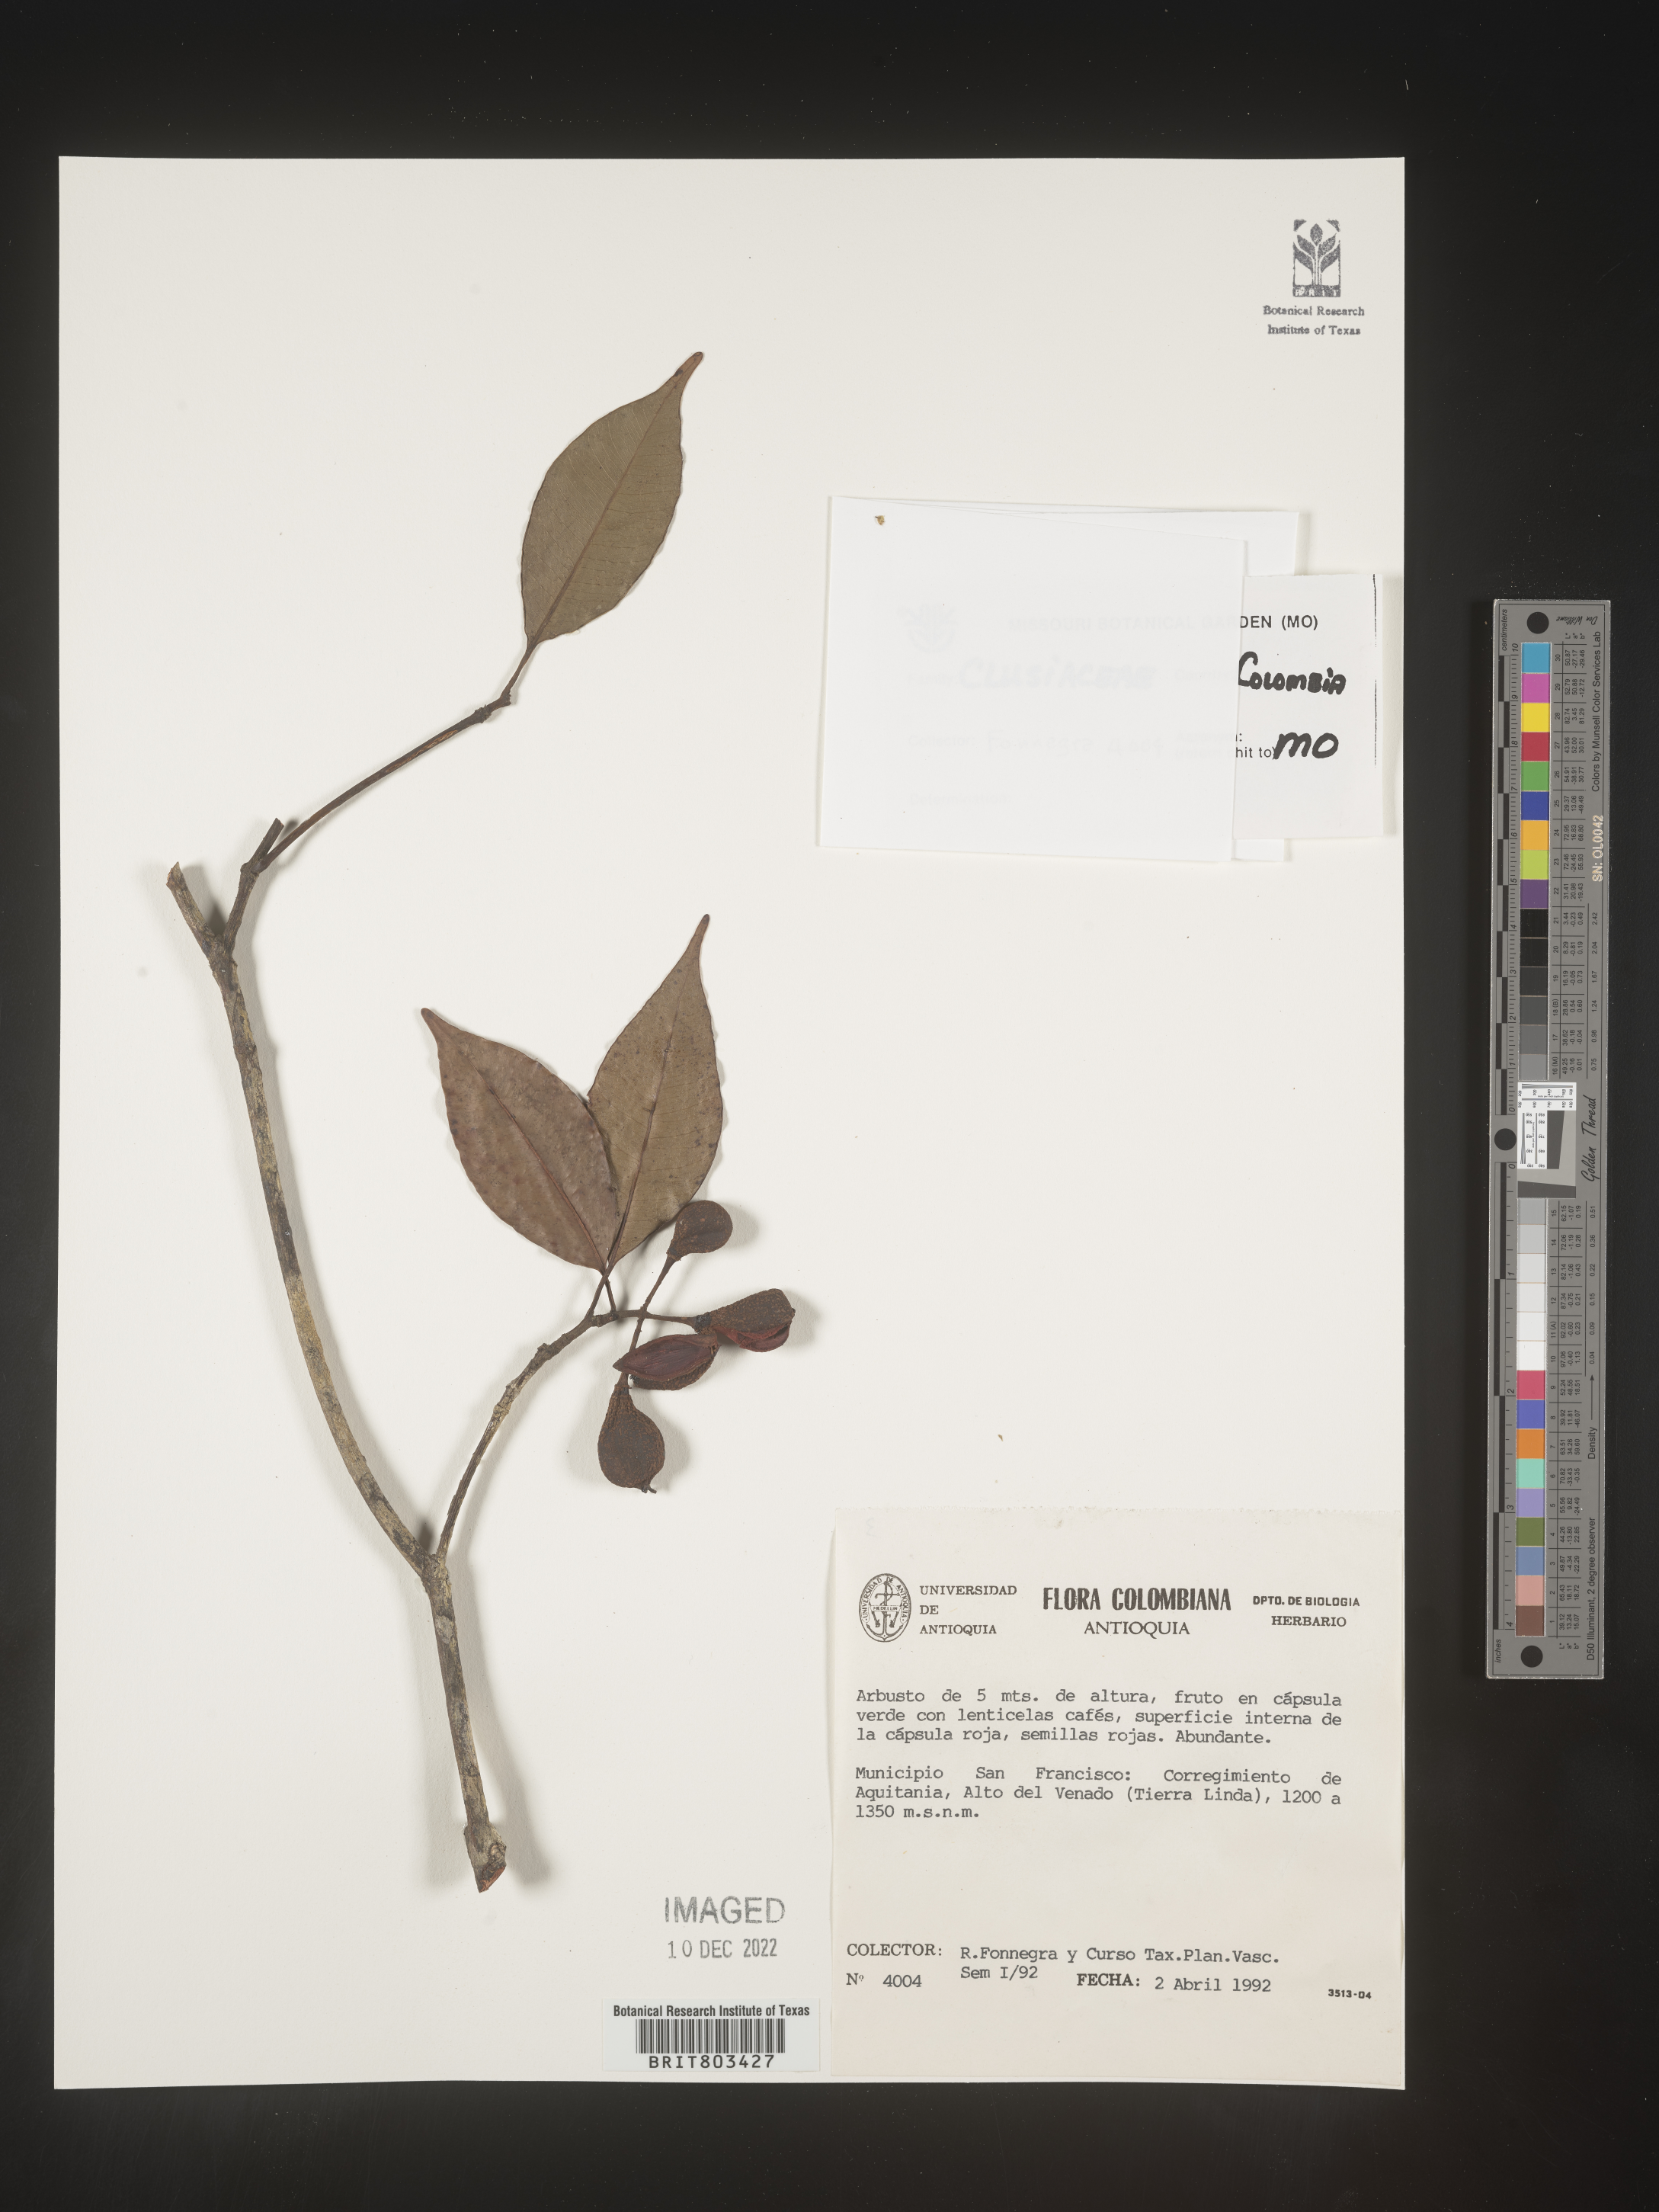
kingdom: Plantae
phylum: Tracheophyta
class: Magnoliopsida
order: Malpighiales
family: Clusiaceae
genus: Tovomita
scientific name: Tovomita
